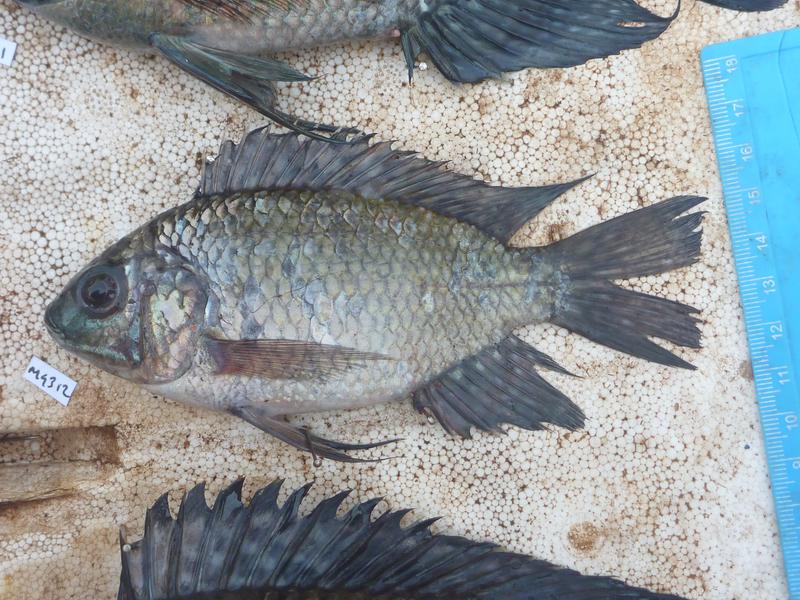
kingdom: Animalia
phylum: Chordata
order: Perciformes
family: Cichlidae
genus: Oreochromis
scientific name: Oreochromis leucostictus
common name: Blue spotted tilapia
